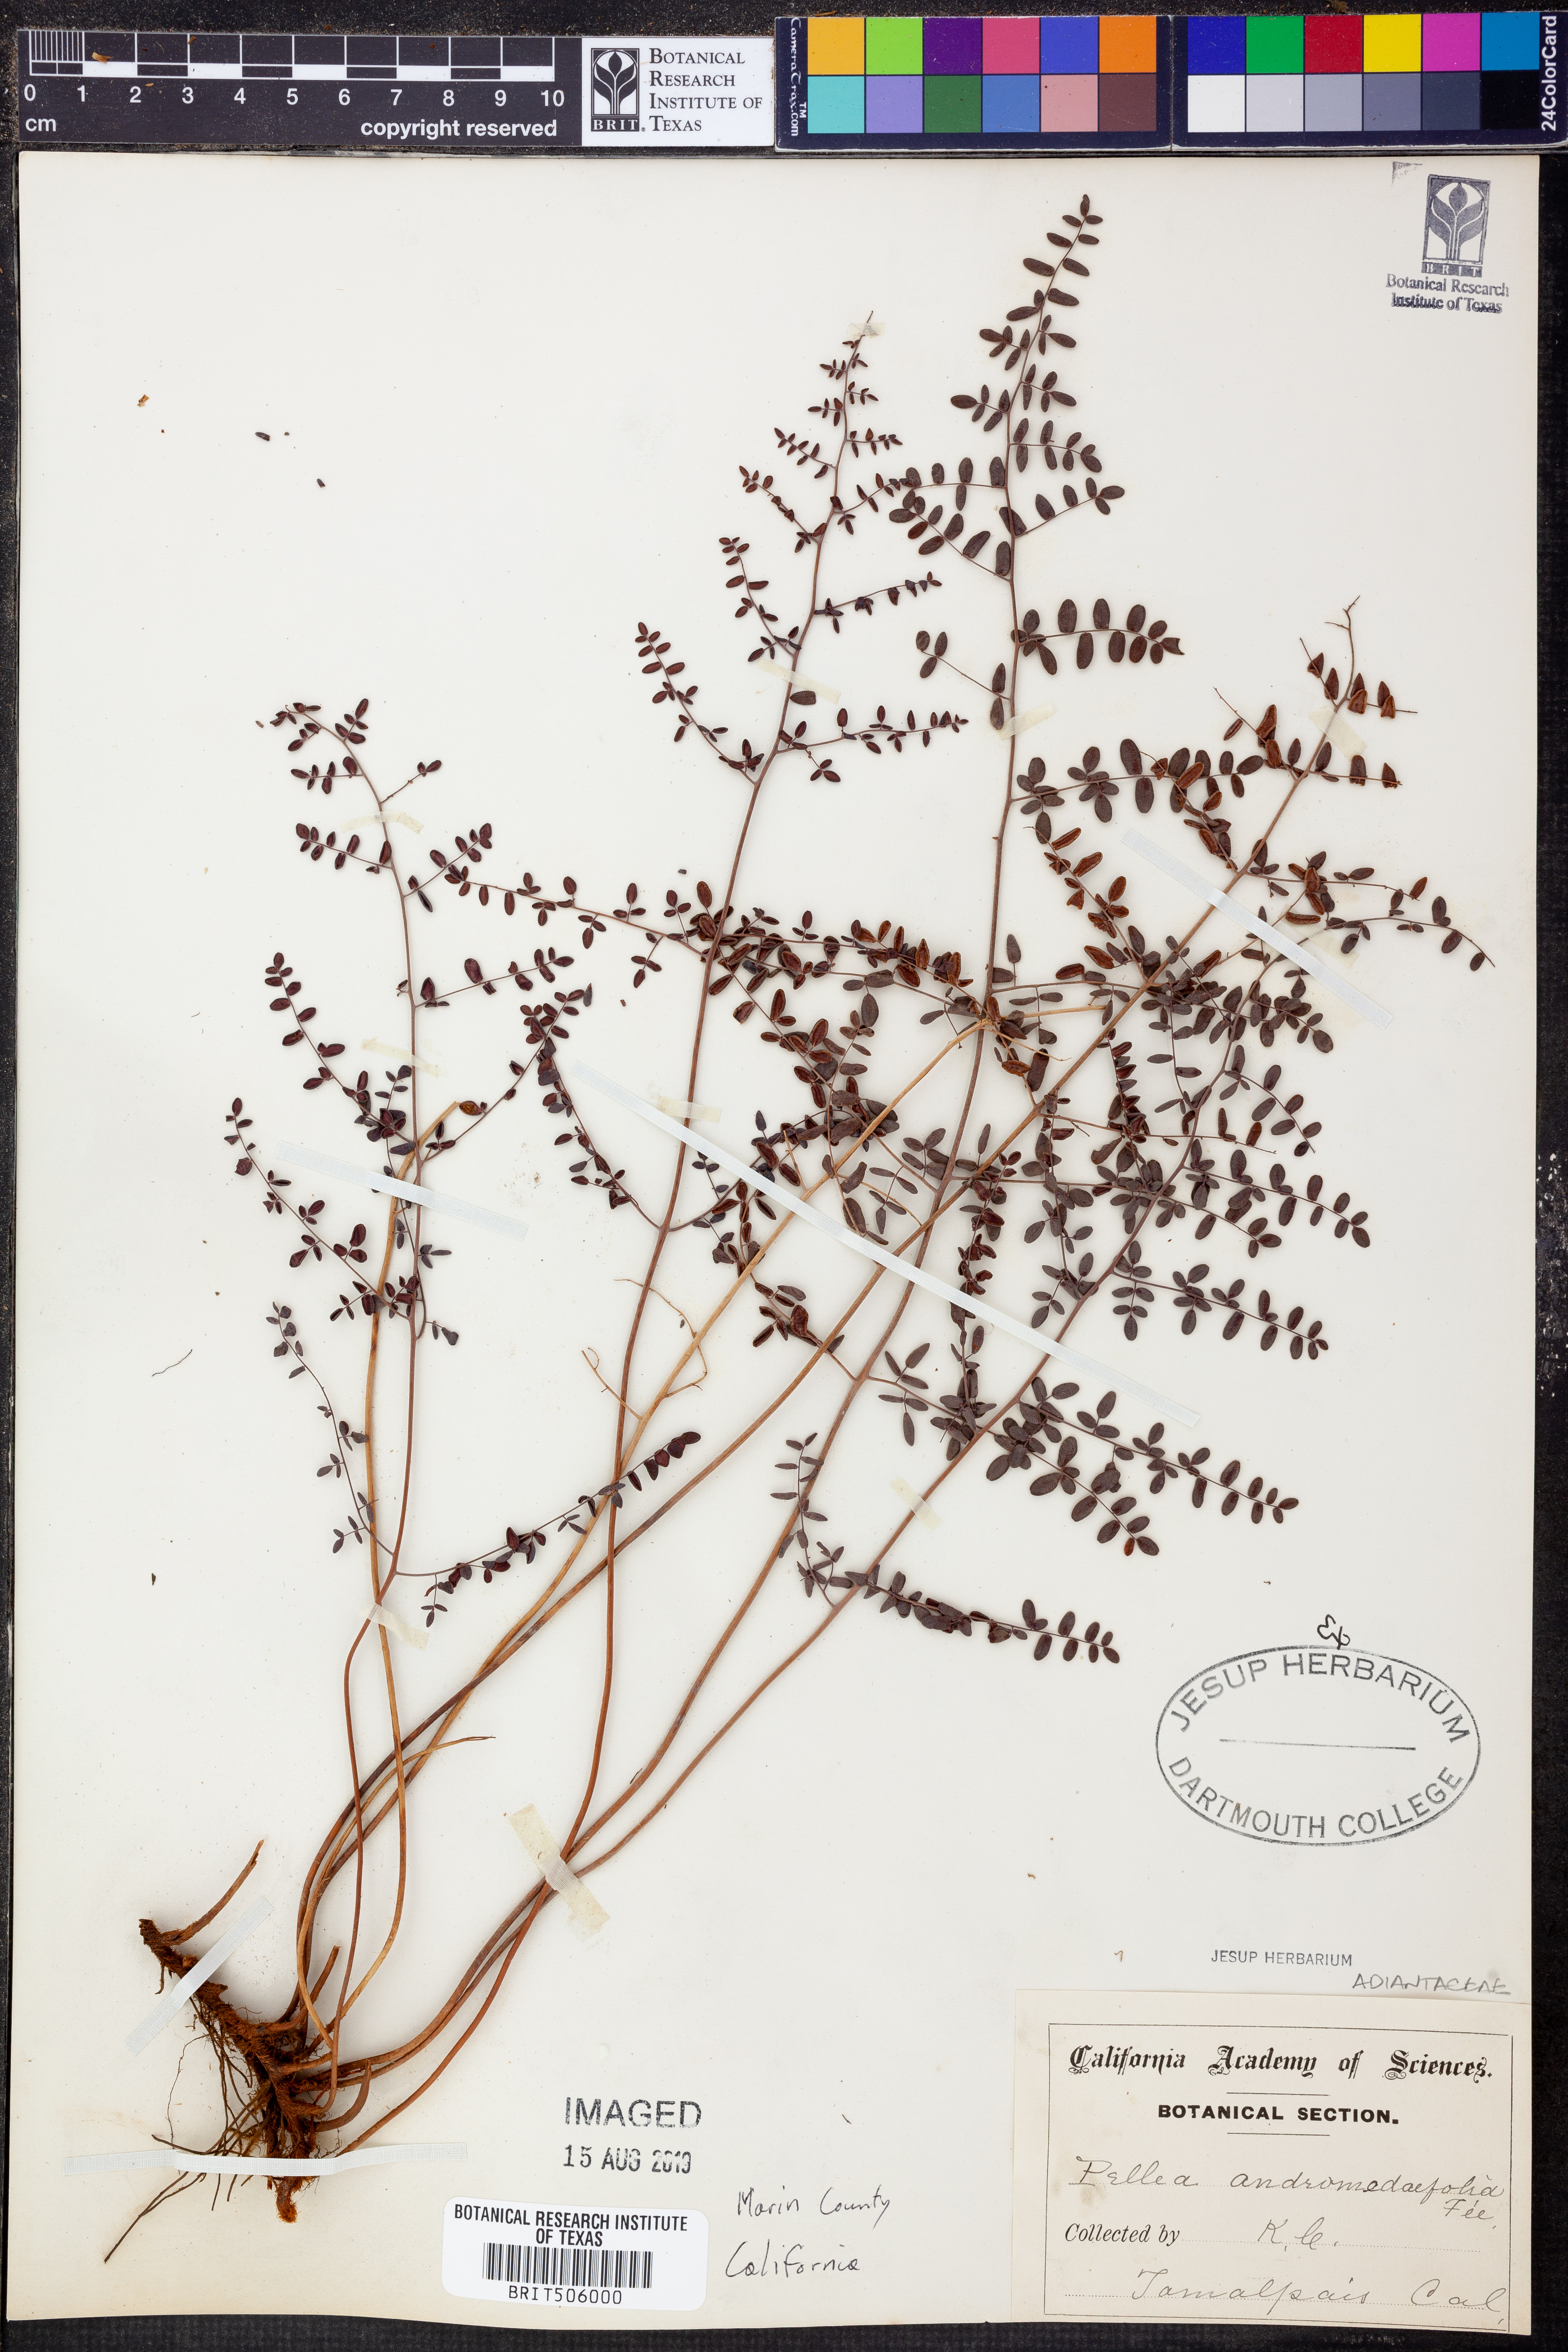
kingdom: Plantae
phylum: Tracheophyta
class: Polypodiopsida
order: Polypodiales
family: Pteridaceae
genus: Pellaea
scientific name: Pellaea andromedifolia
